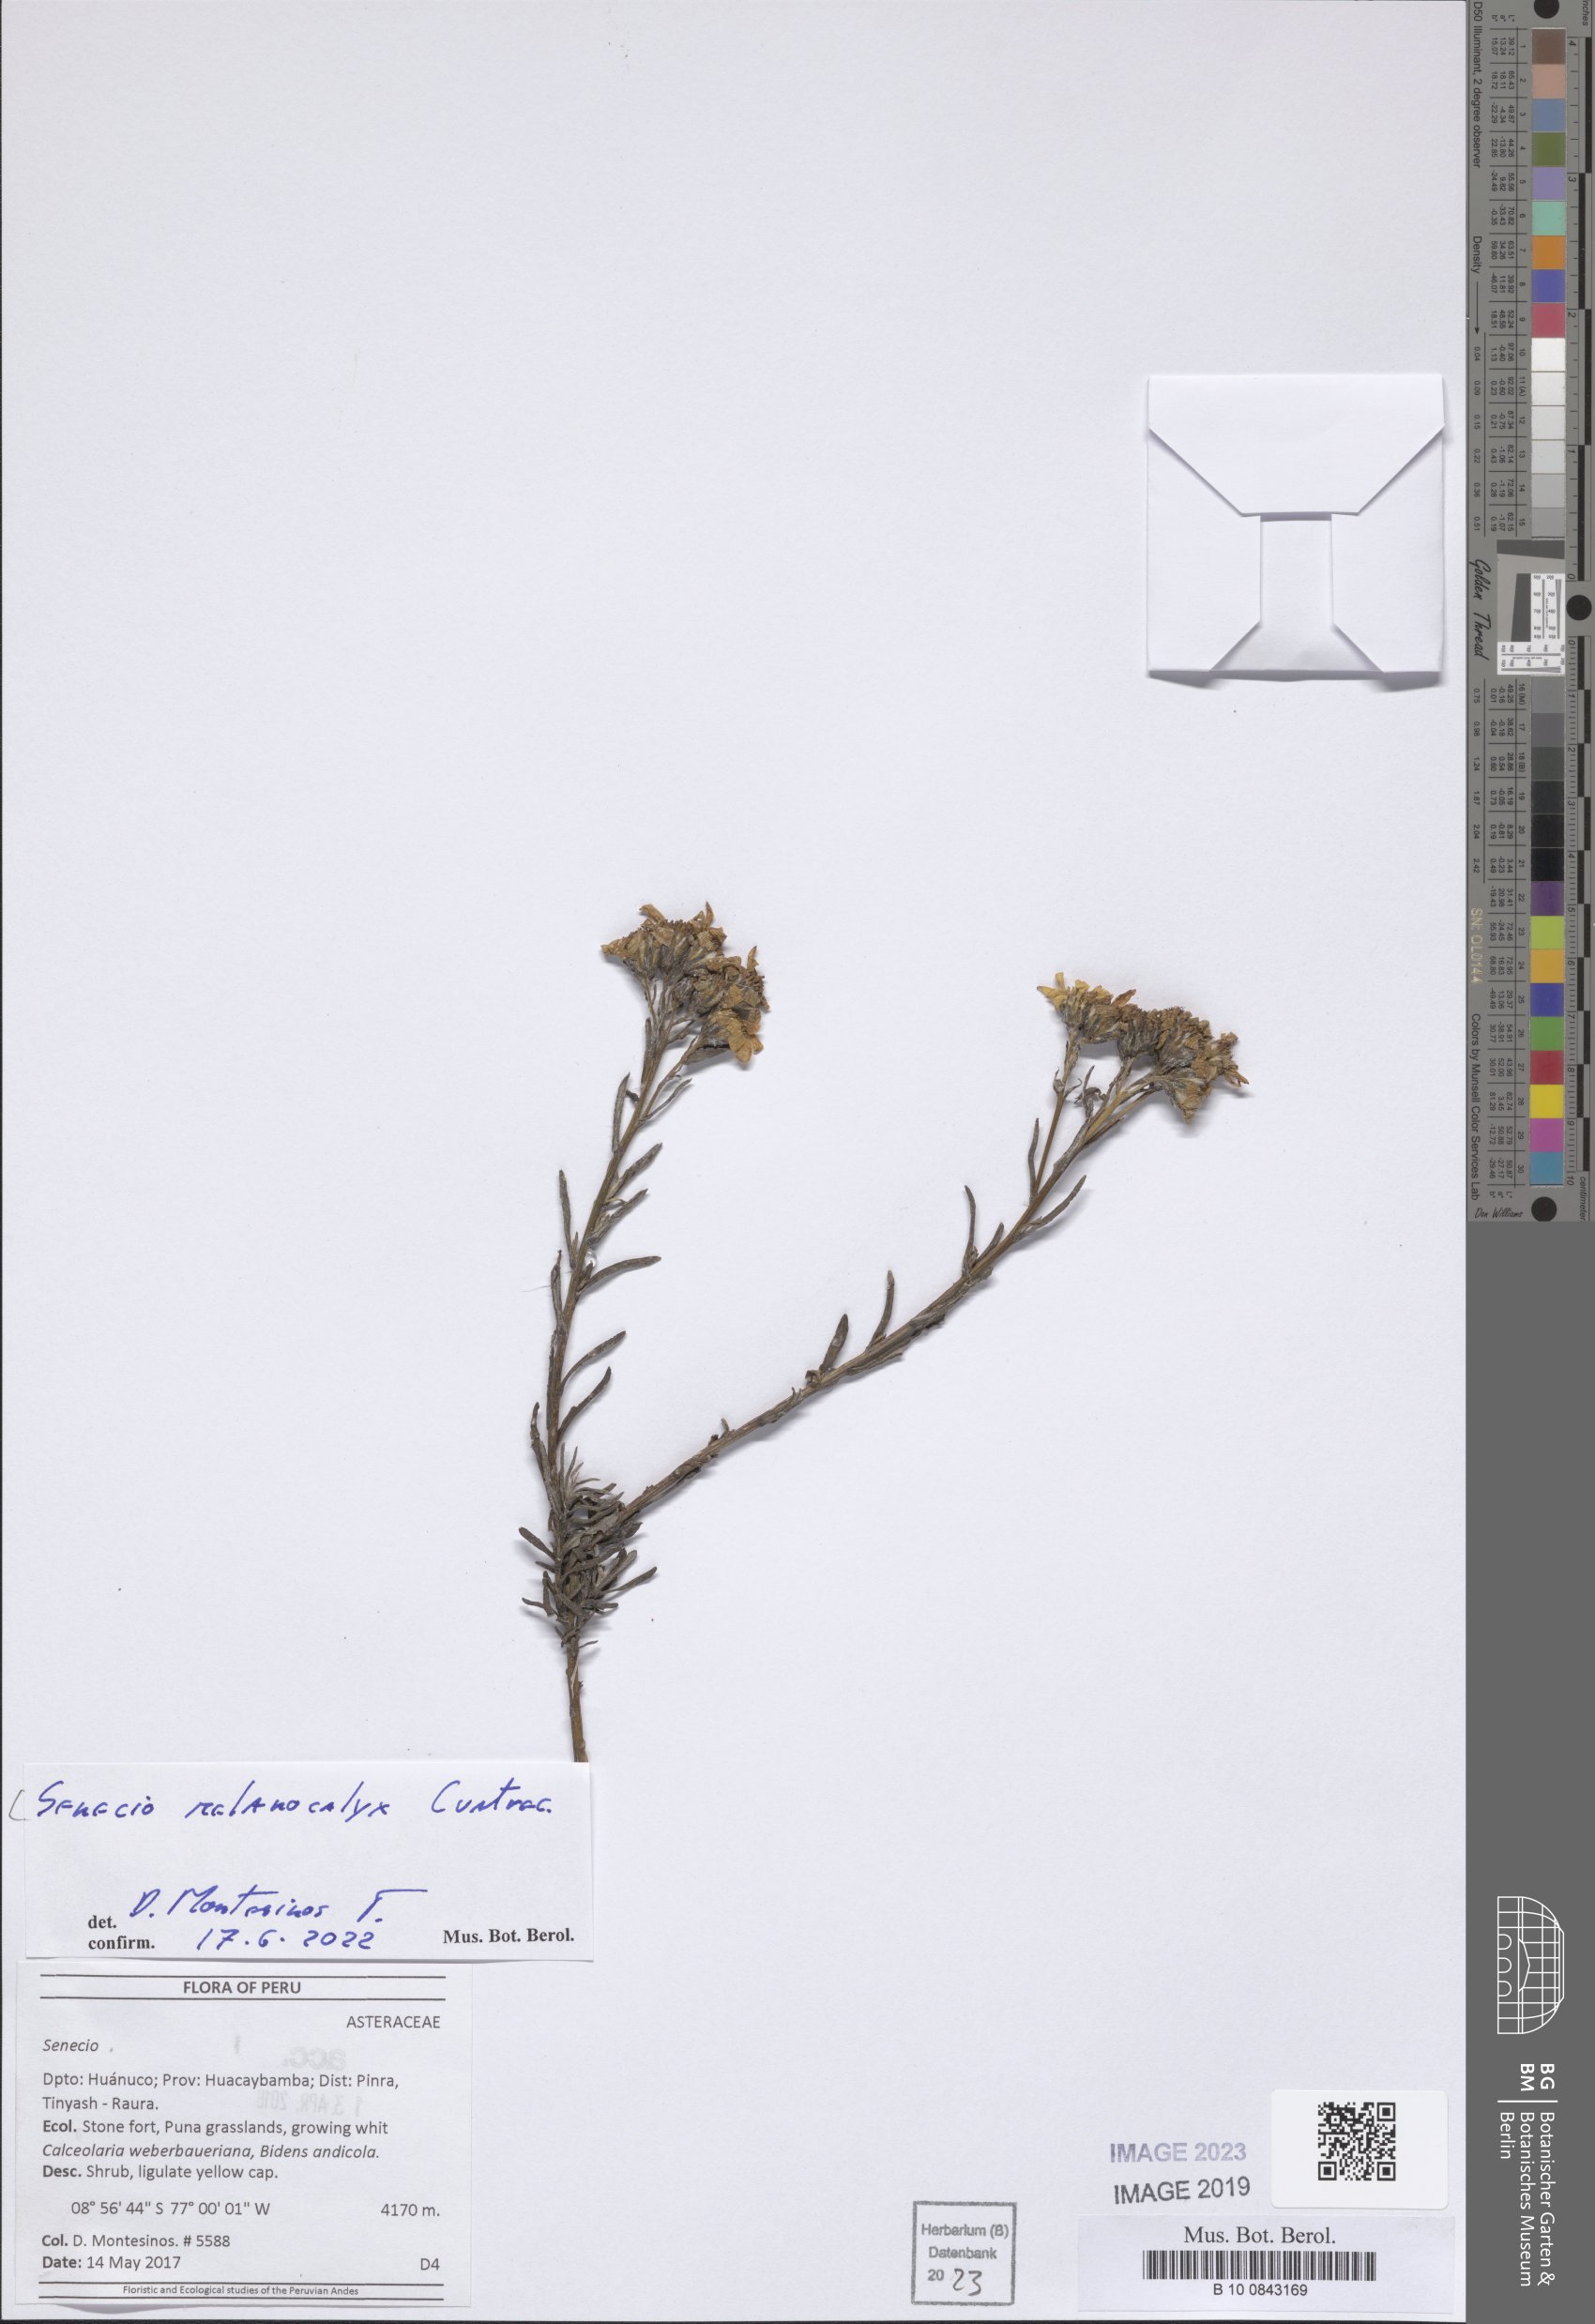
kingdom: Plantae
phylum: Tracheophyta
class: Magnoliopsida
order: Asterales
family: Asteraceae
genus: Senecio
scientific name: Senecio melanocalyx
